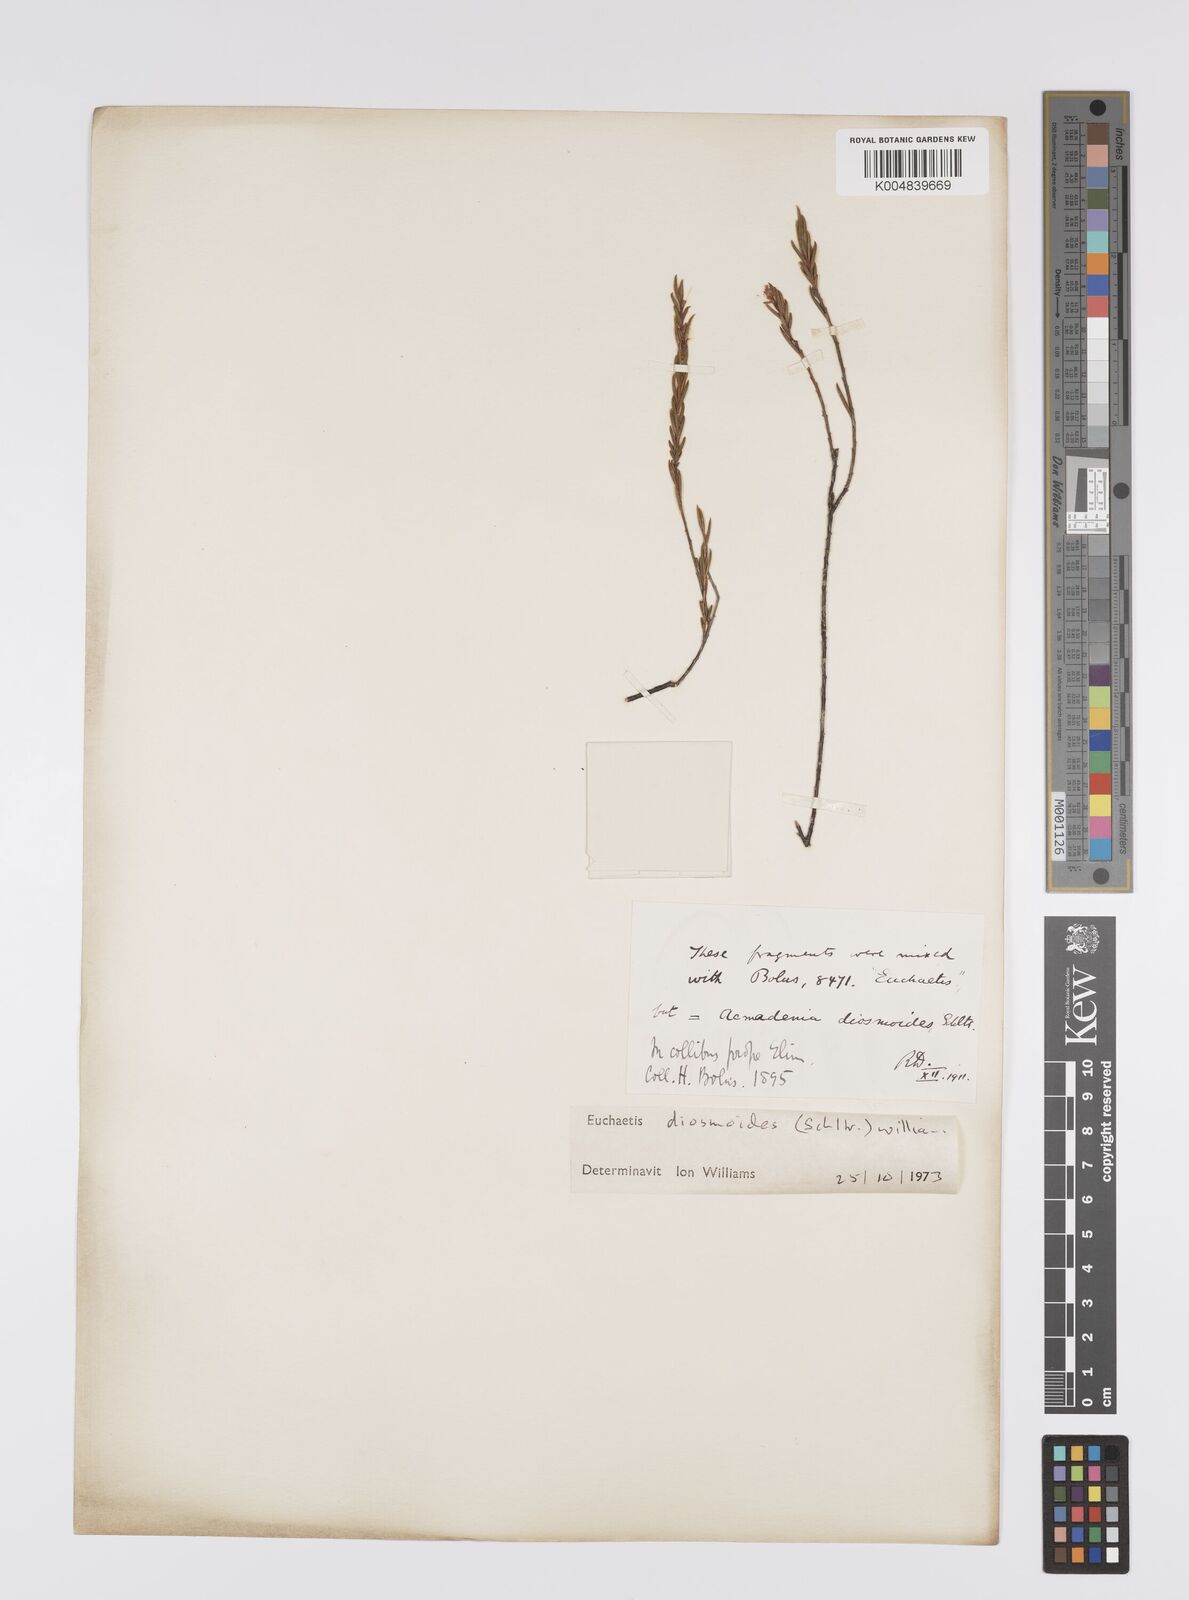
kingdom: Plantae
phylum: Tracheophyta
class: Magnoliopsida
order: Sapindales
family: Rutaceae
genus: Euchaetis
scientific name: Euchaetis diosmoides
